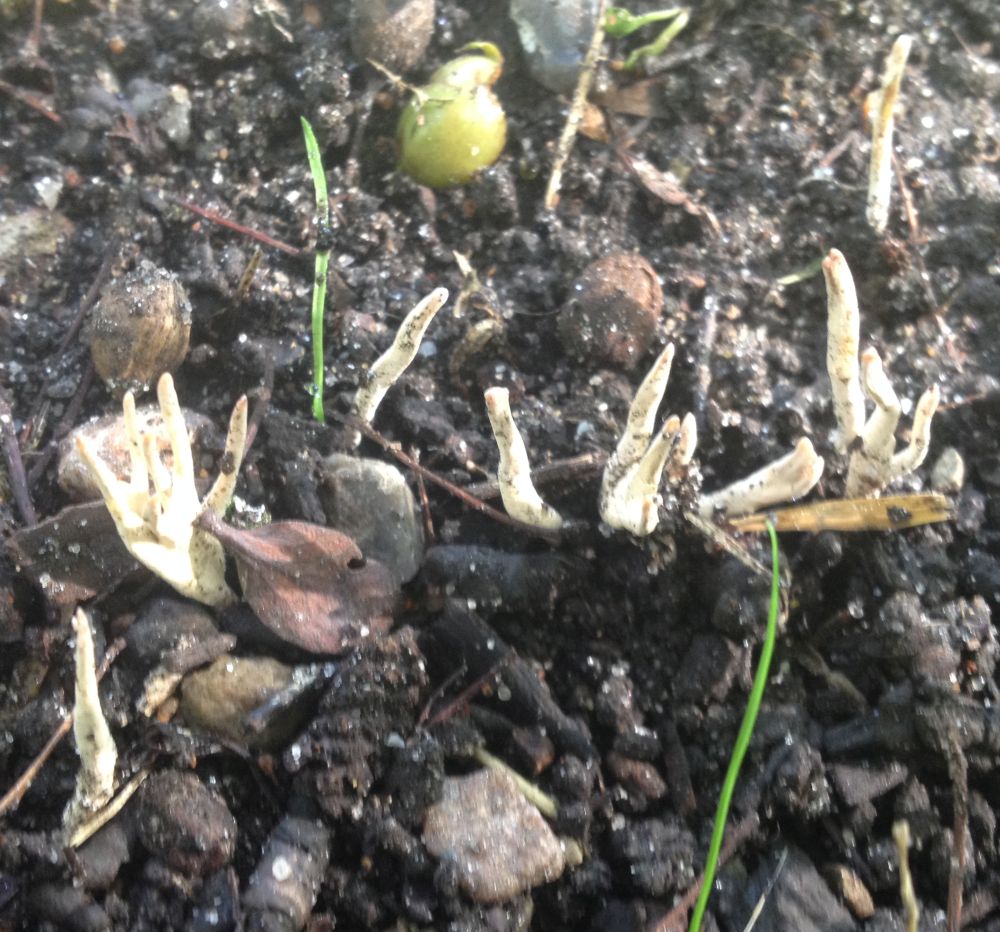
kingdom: Fungi
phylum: Ascomycota
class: Sordariomycetes
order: Xylariales
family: Xylariaceae
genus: Xylaria
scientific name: Xylaria oxyacanthae
